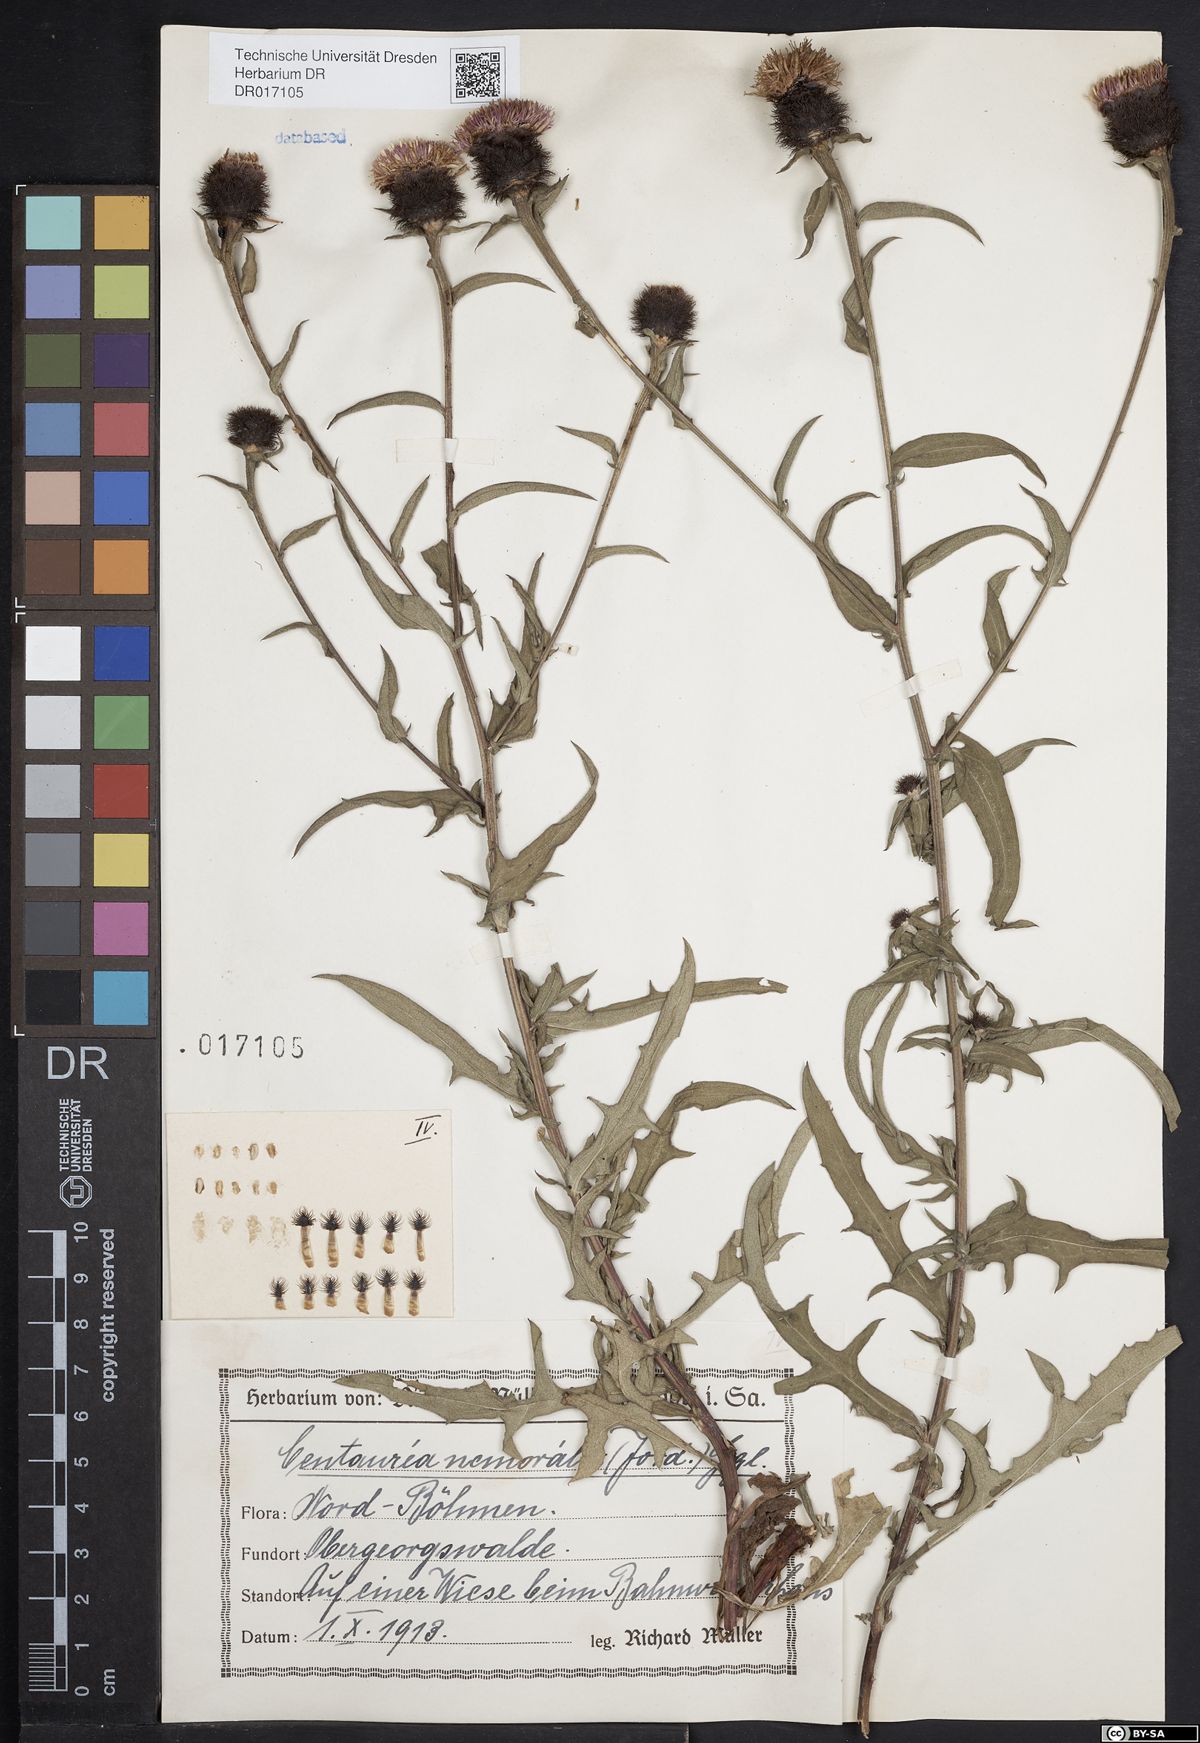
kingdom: Plantae
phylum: Tracheophyta
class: Magnoliopsida
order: Asterales
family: Asteraceae
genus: Centaurea
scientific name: Centaurea nigra
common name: Lesser knapweed
